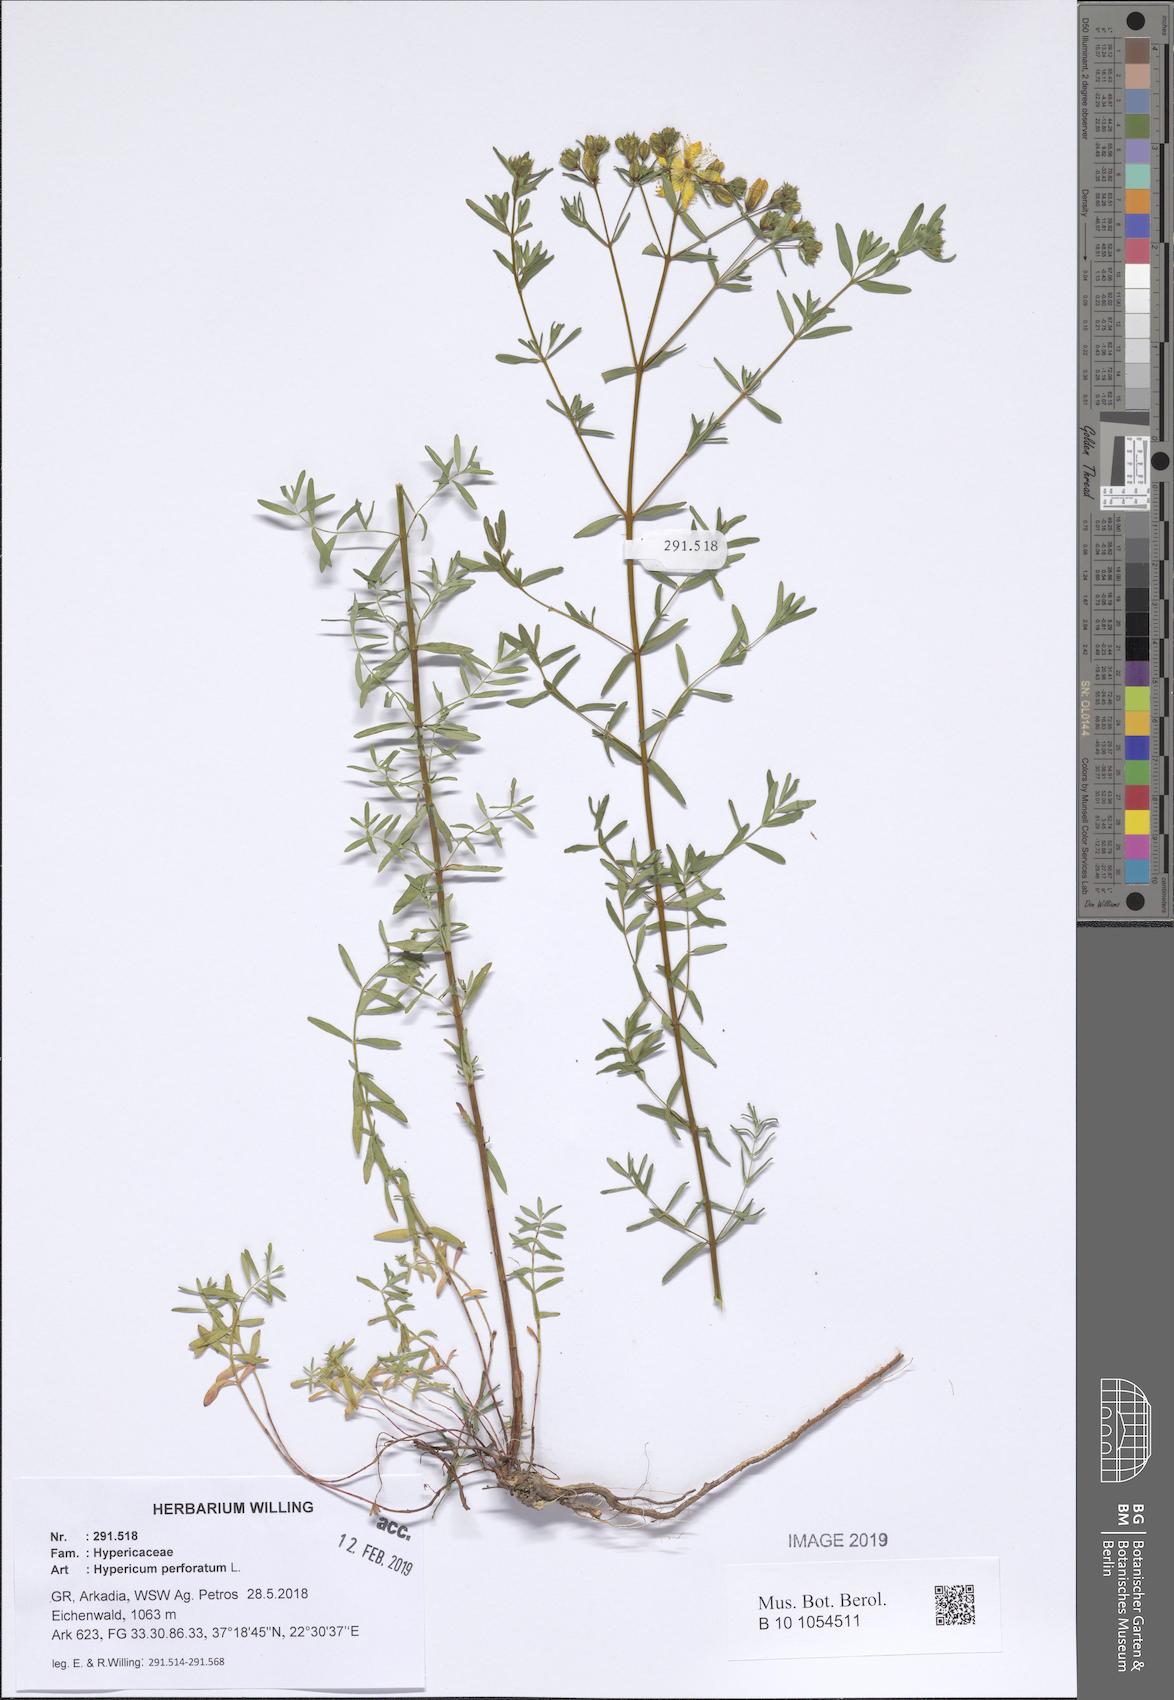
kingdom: Plantae
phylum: Tracheophyta
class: Magnoliopsida
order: Malpighiales
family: Hypericaceae
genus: Hypericum
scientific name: Hypericum perforatum
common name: Common st. johnswort
